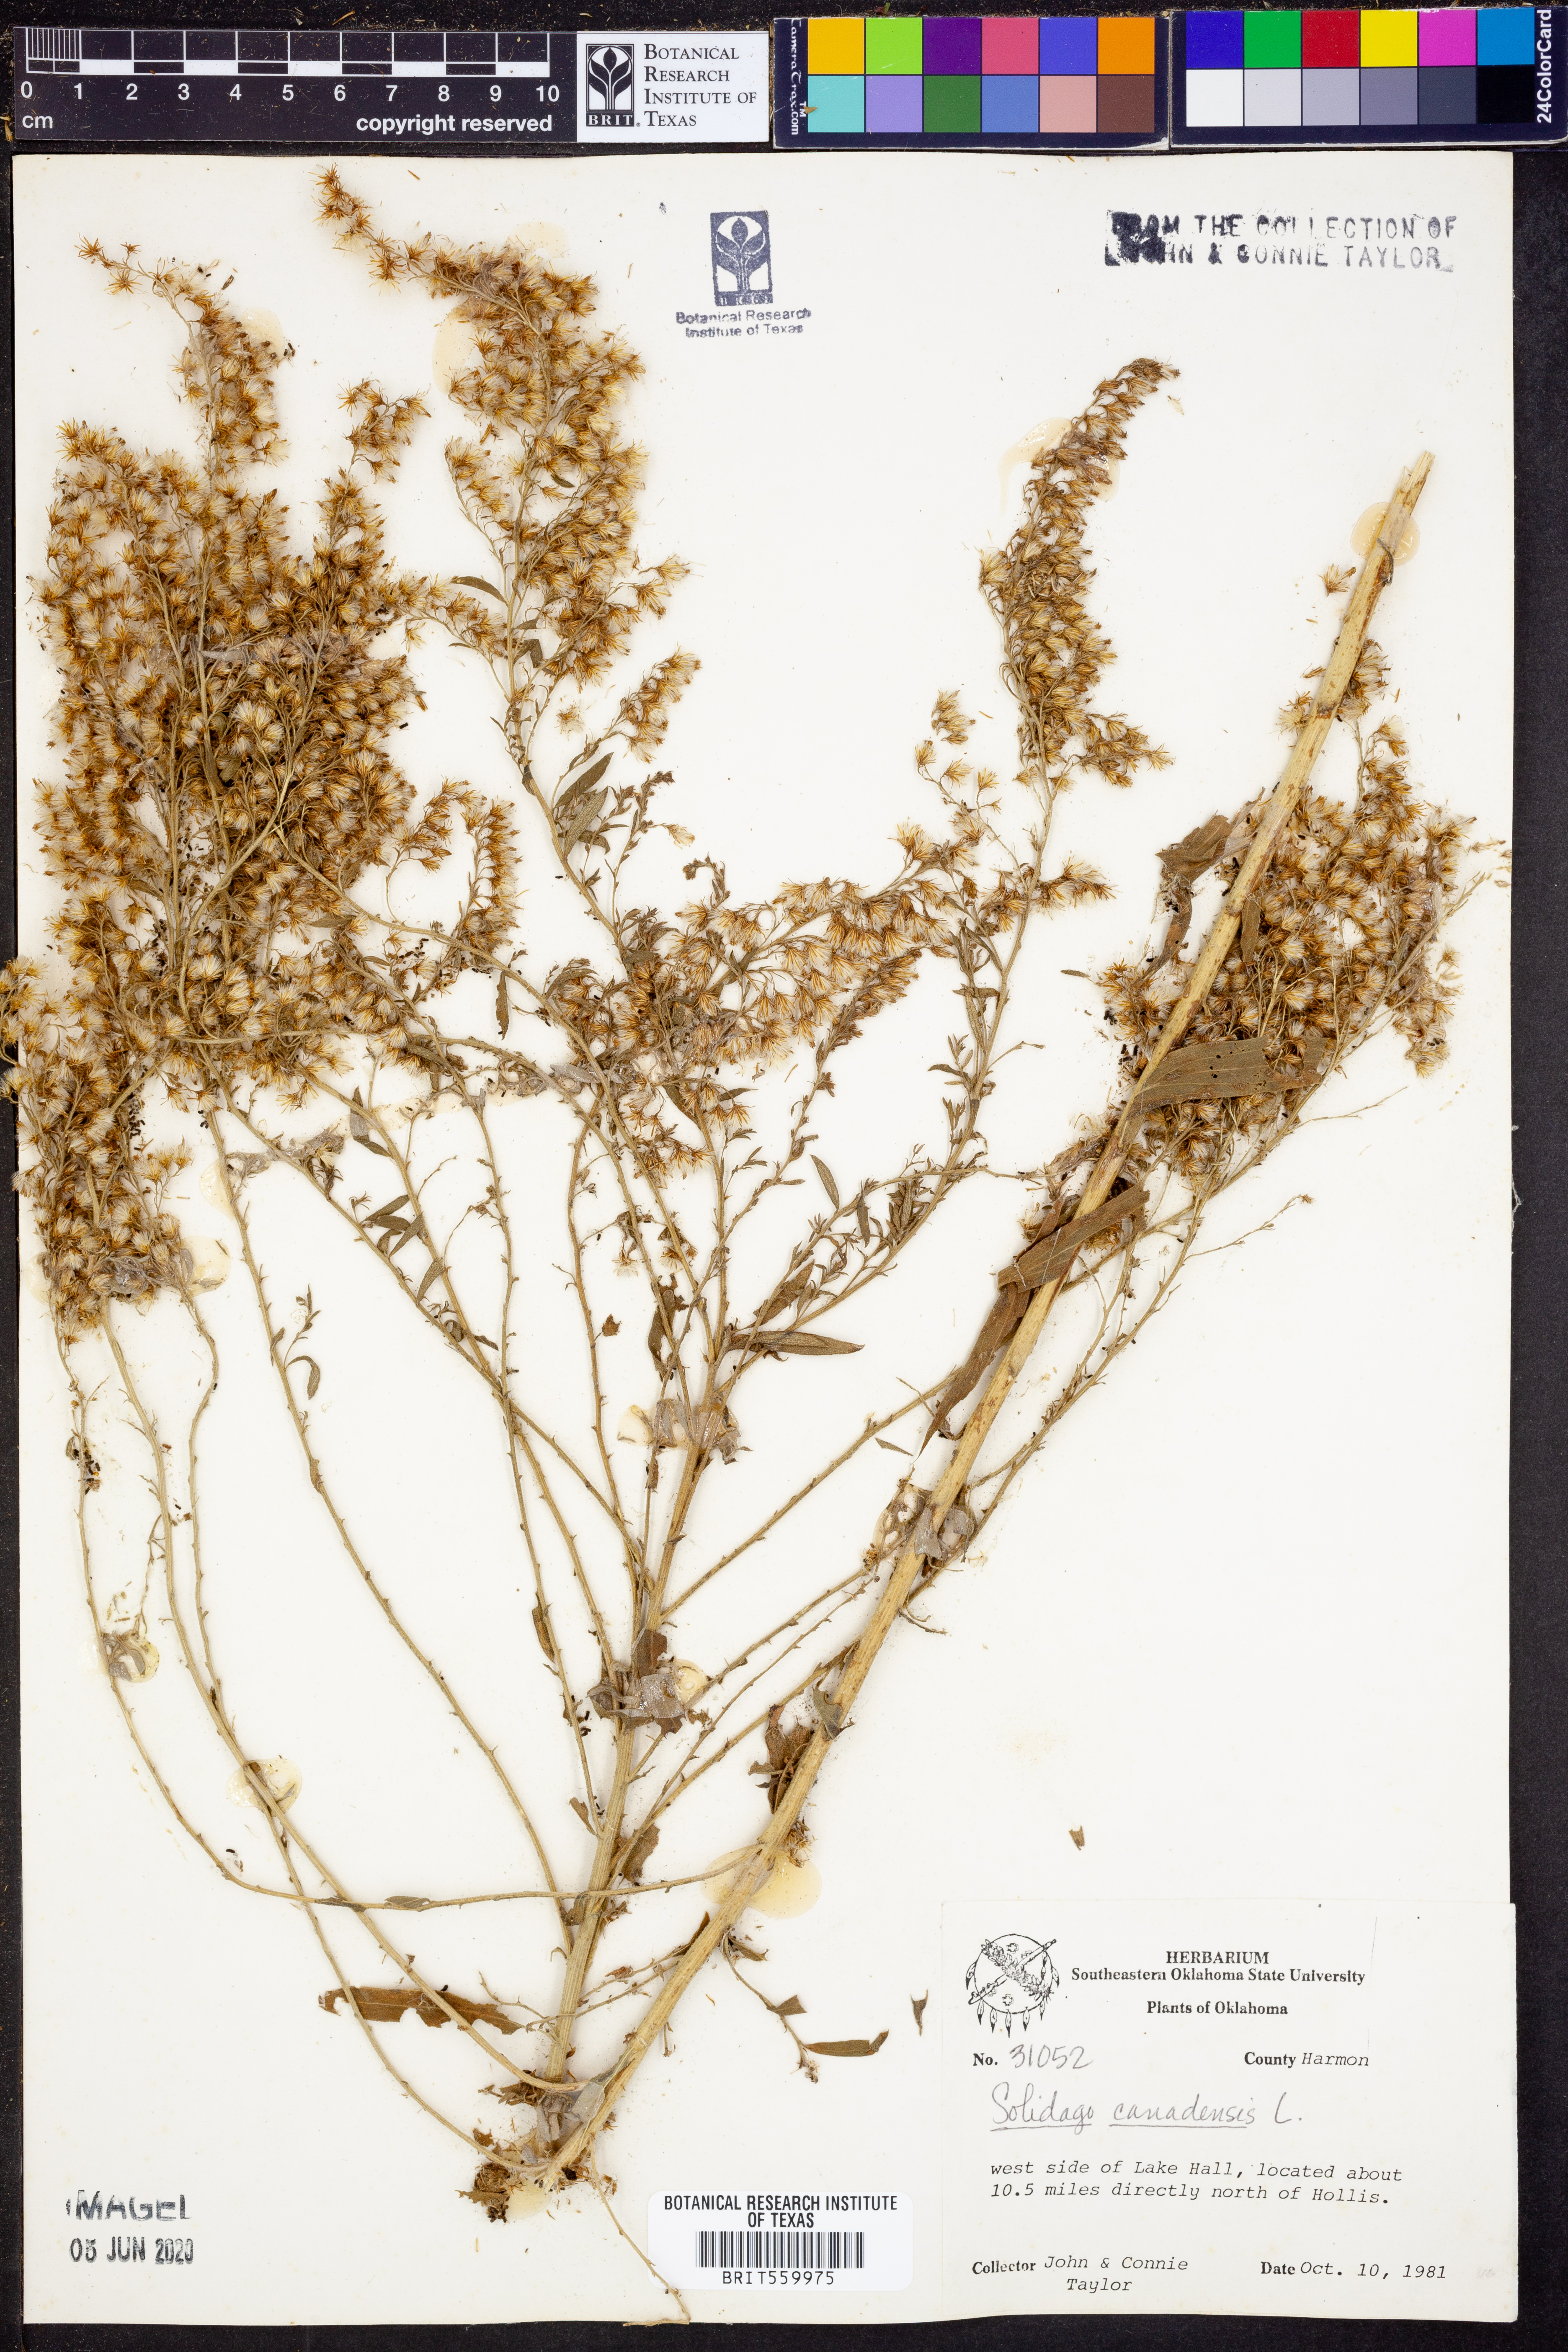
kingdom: Plantae
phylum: Tracheophyta
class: Magnoliopsida
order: Asterales
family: Asteraceae
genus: Solidago
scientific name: Solidago canadensis
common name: Canada goldenrod
